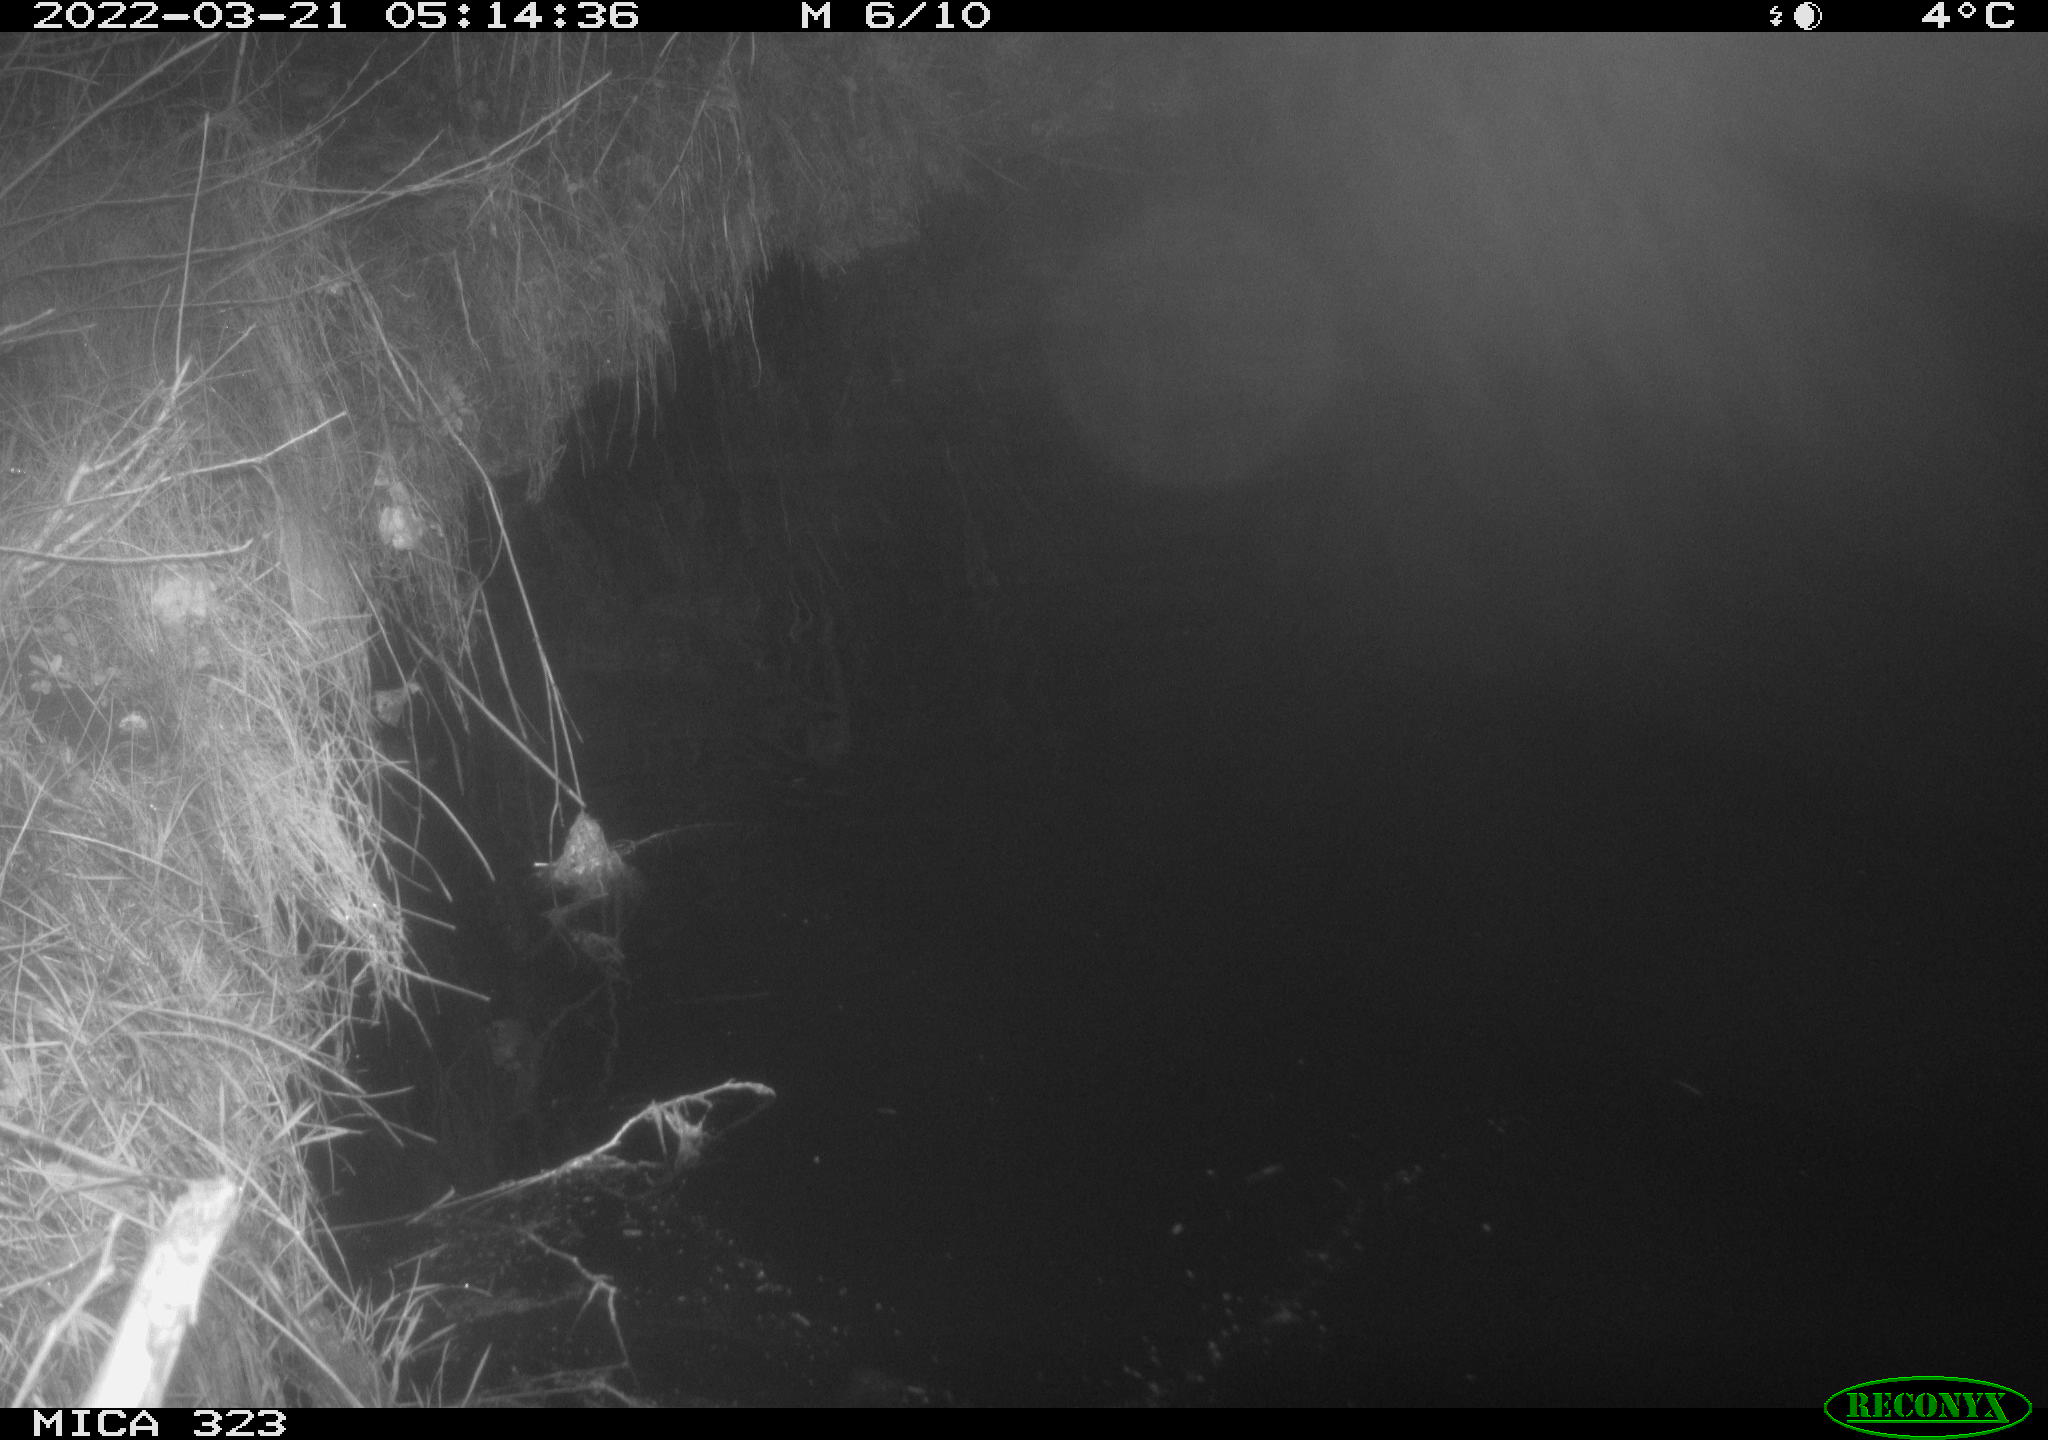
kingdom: Animalia
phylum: Chordata
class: Mammalia
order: Rodentia
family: Muridae
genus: Rattus
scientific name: Rattus norvegicus
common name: Brown rat
